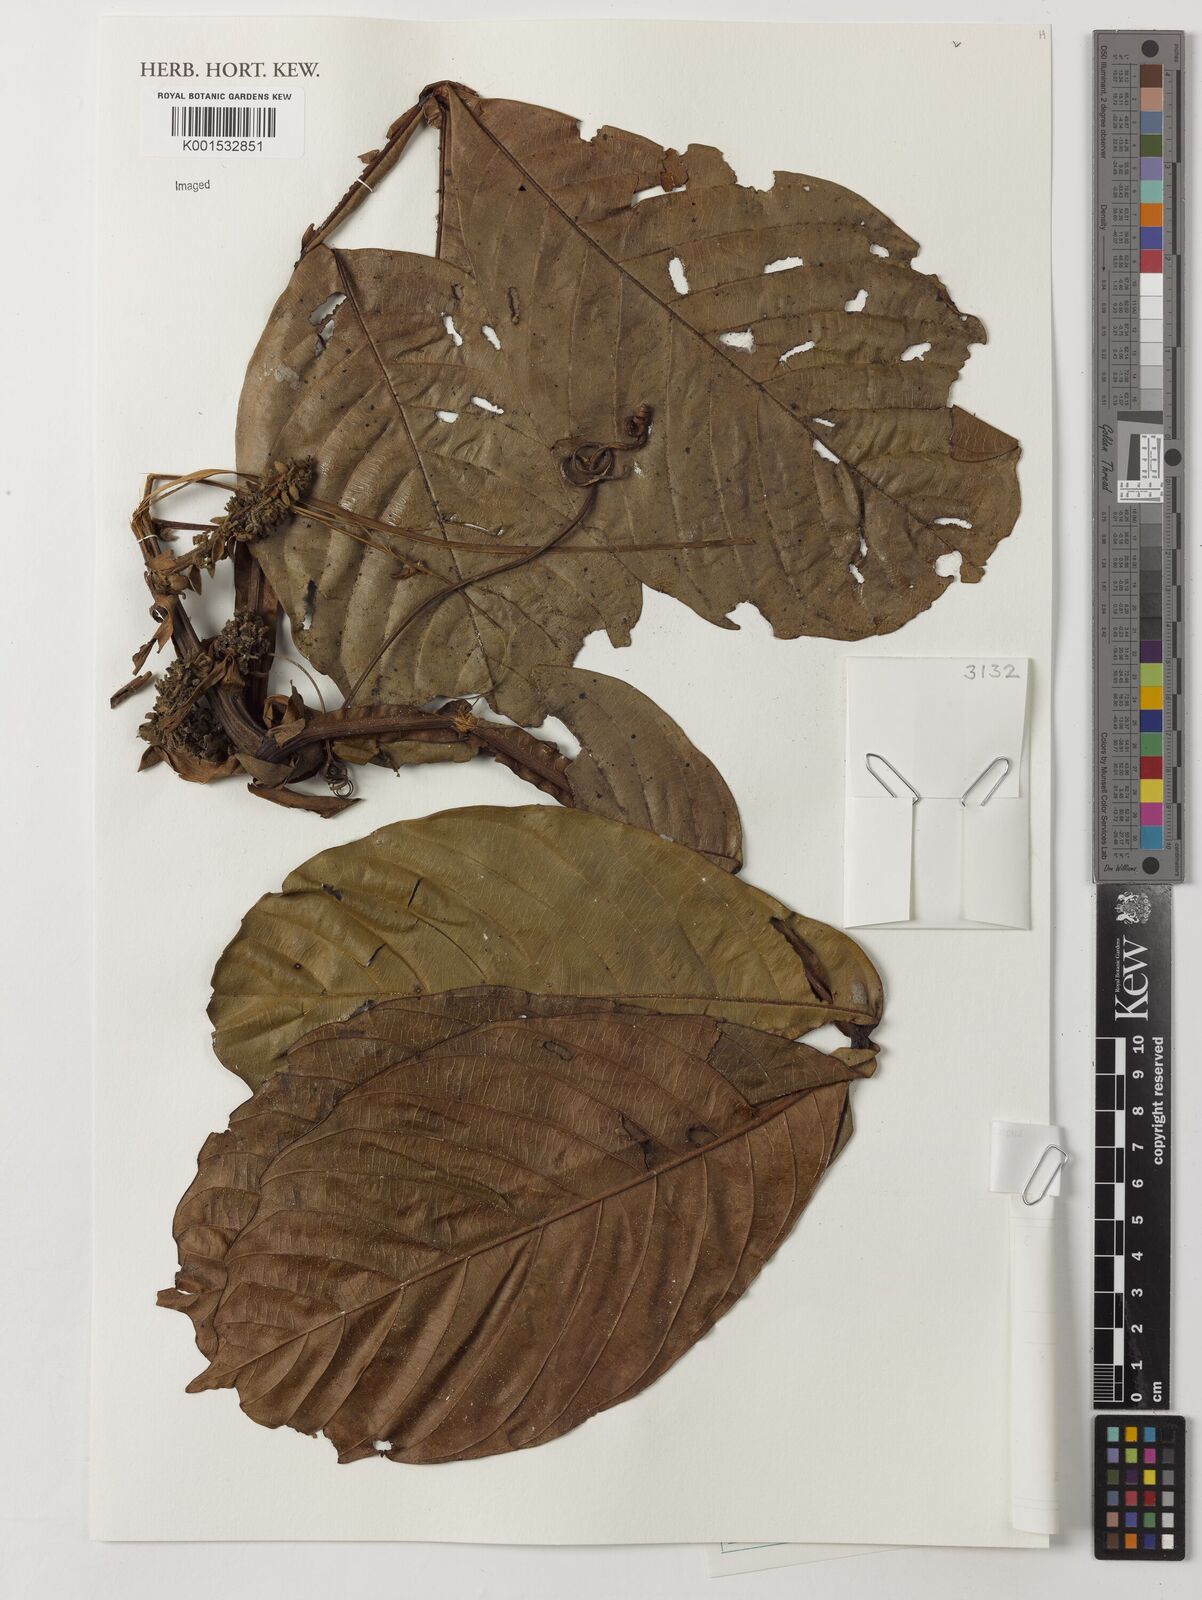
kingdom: Plantae
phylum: Tracheophyta
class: Magnoliopsida
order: Sapindales
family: Sapindaceae
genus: Paullinia
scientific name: Paullinia bracteosa
